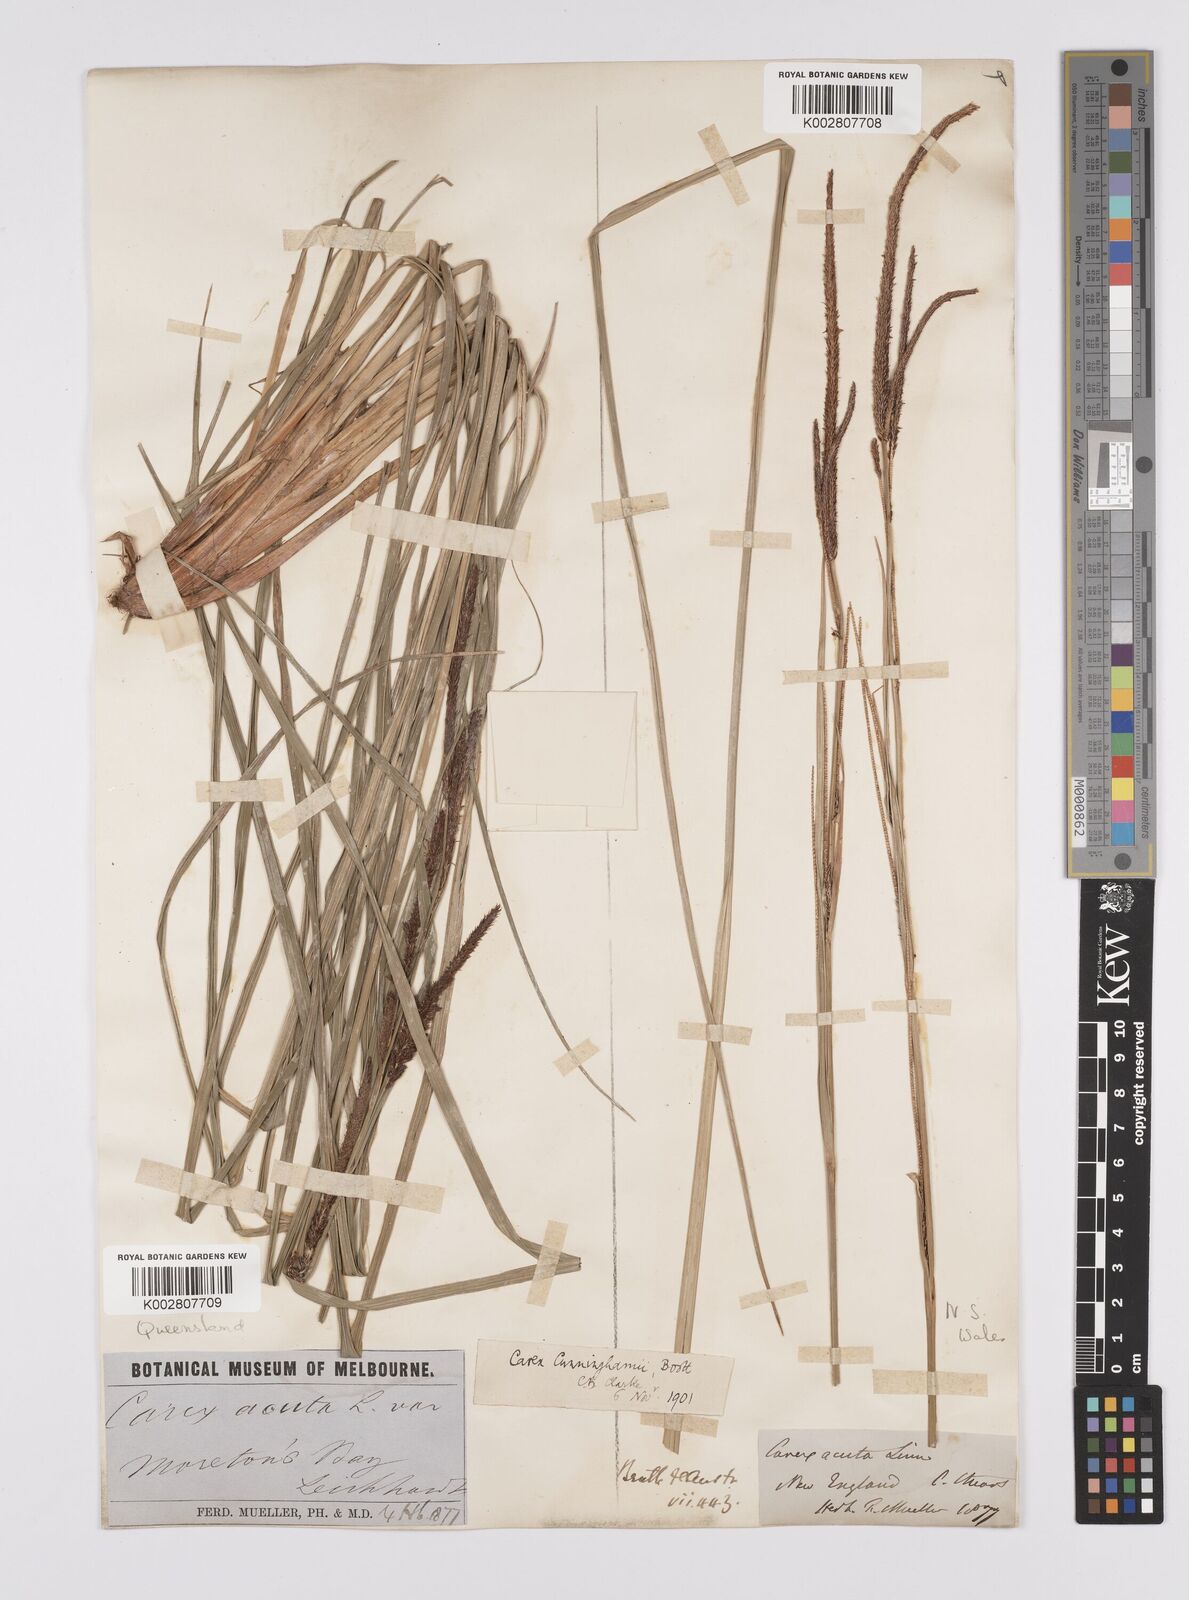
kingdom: Plantae
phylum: Tracheophyta
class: Liliopsida
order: Poales
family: Cyperaceae
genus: Carex
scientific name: Carex polyantha
